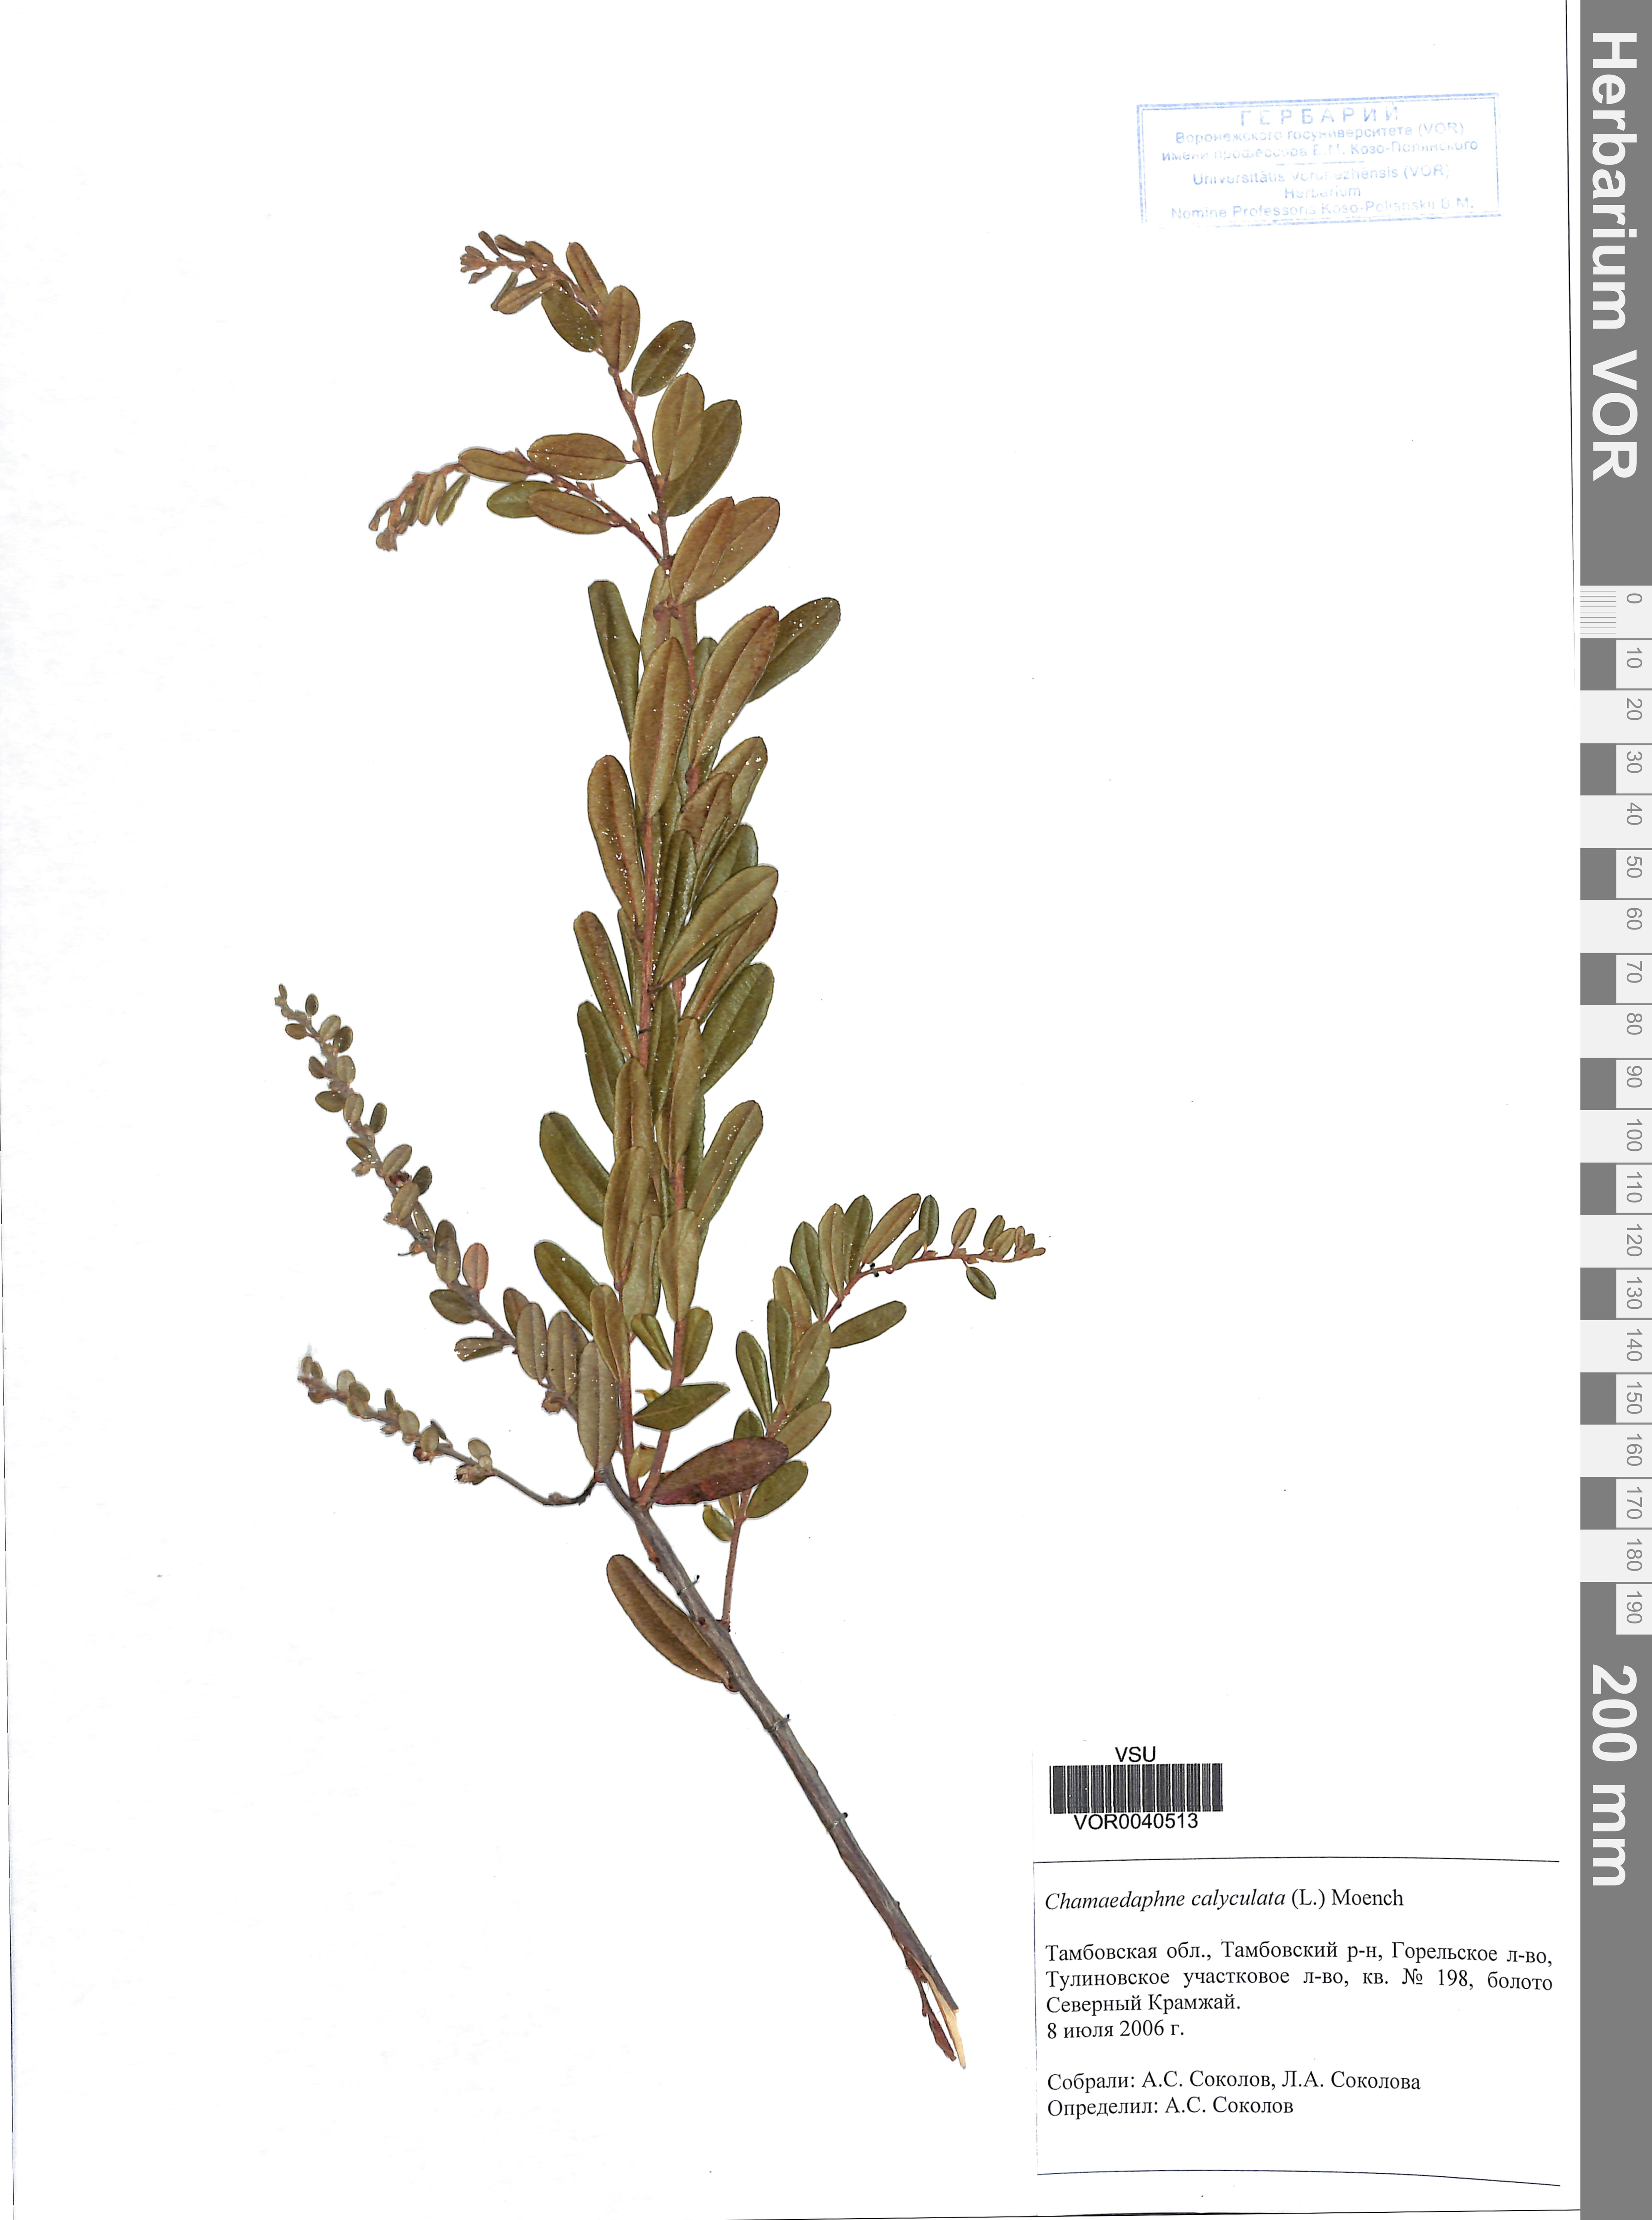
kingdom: Plantae
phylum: Tracheophyta
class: Magnoliopsida
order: Ericales
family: Ericaceae
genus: Chamaedaphne
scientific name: Chamaedaphne calyculata
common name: Leatherleaf
